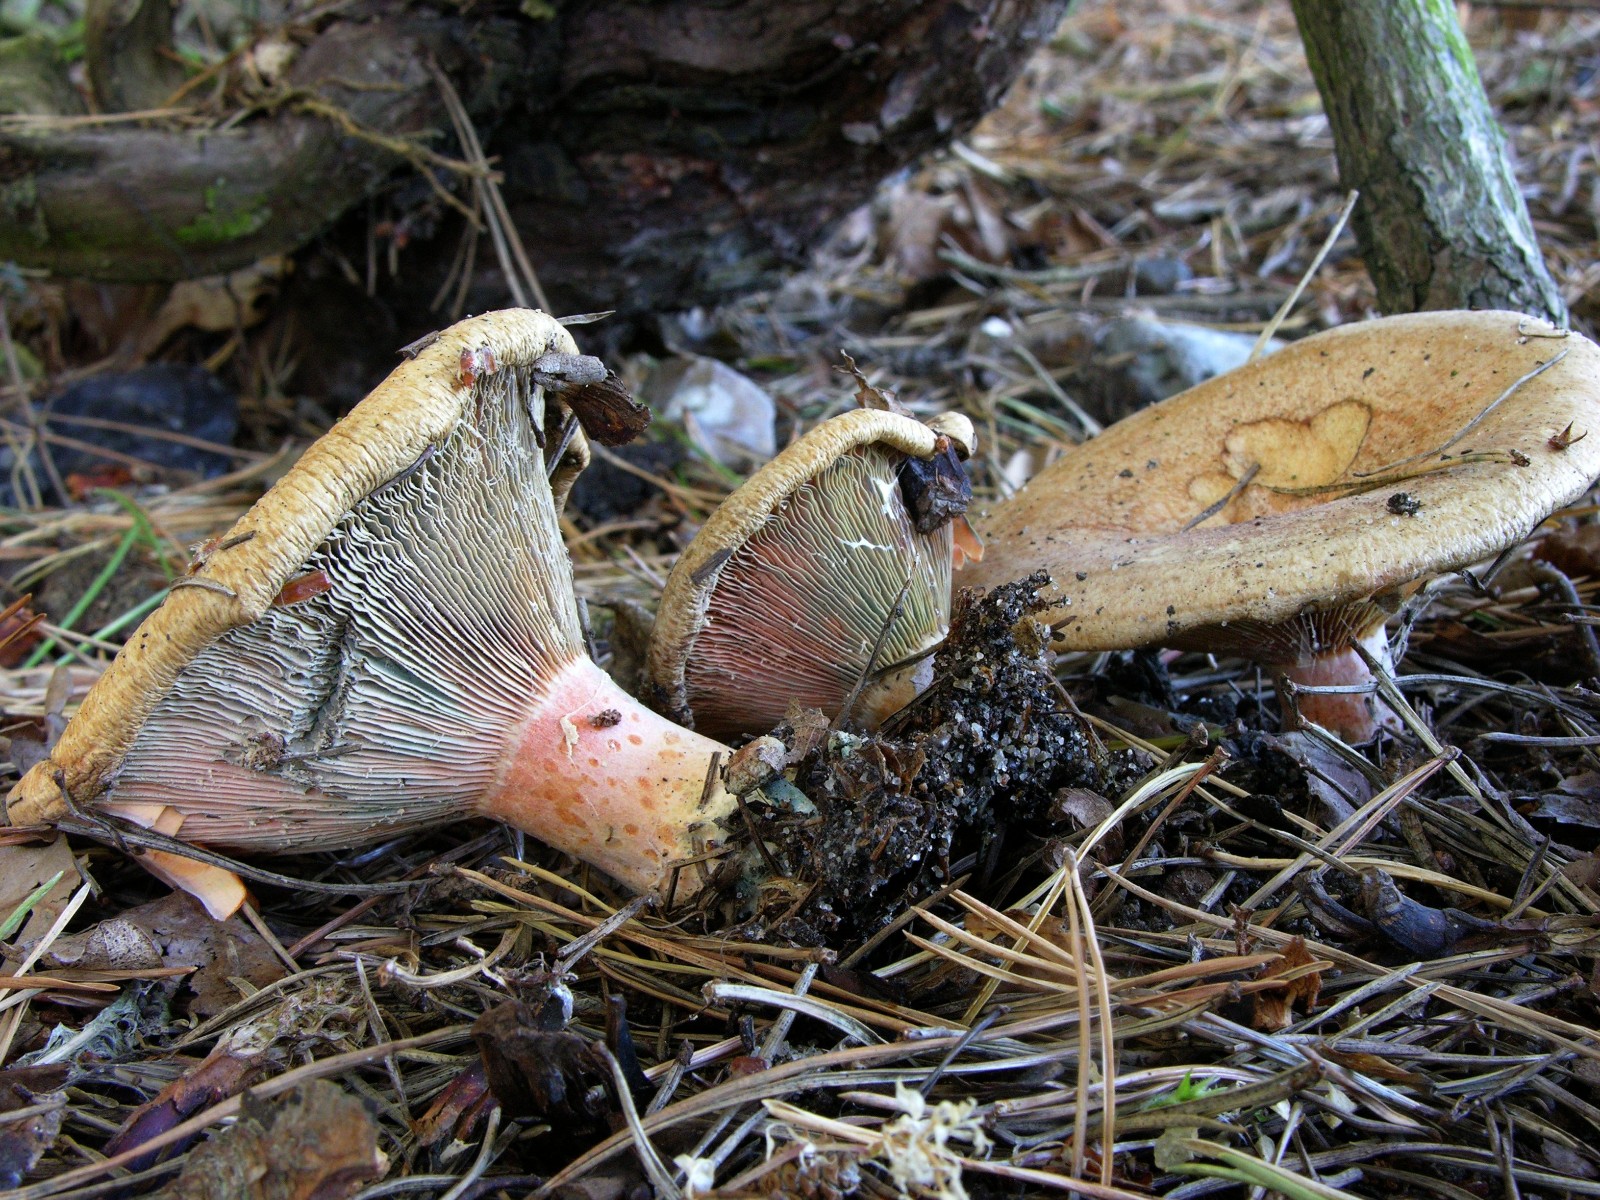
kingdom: Fungi
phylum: Basidiomycota
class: Agaricomycetes
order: Russulales
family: Russulaceae
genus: Lactarius
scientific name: Lactarius deliciosus
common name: velsmagende mælkehat
